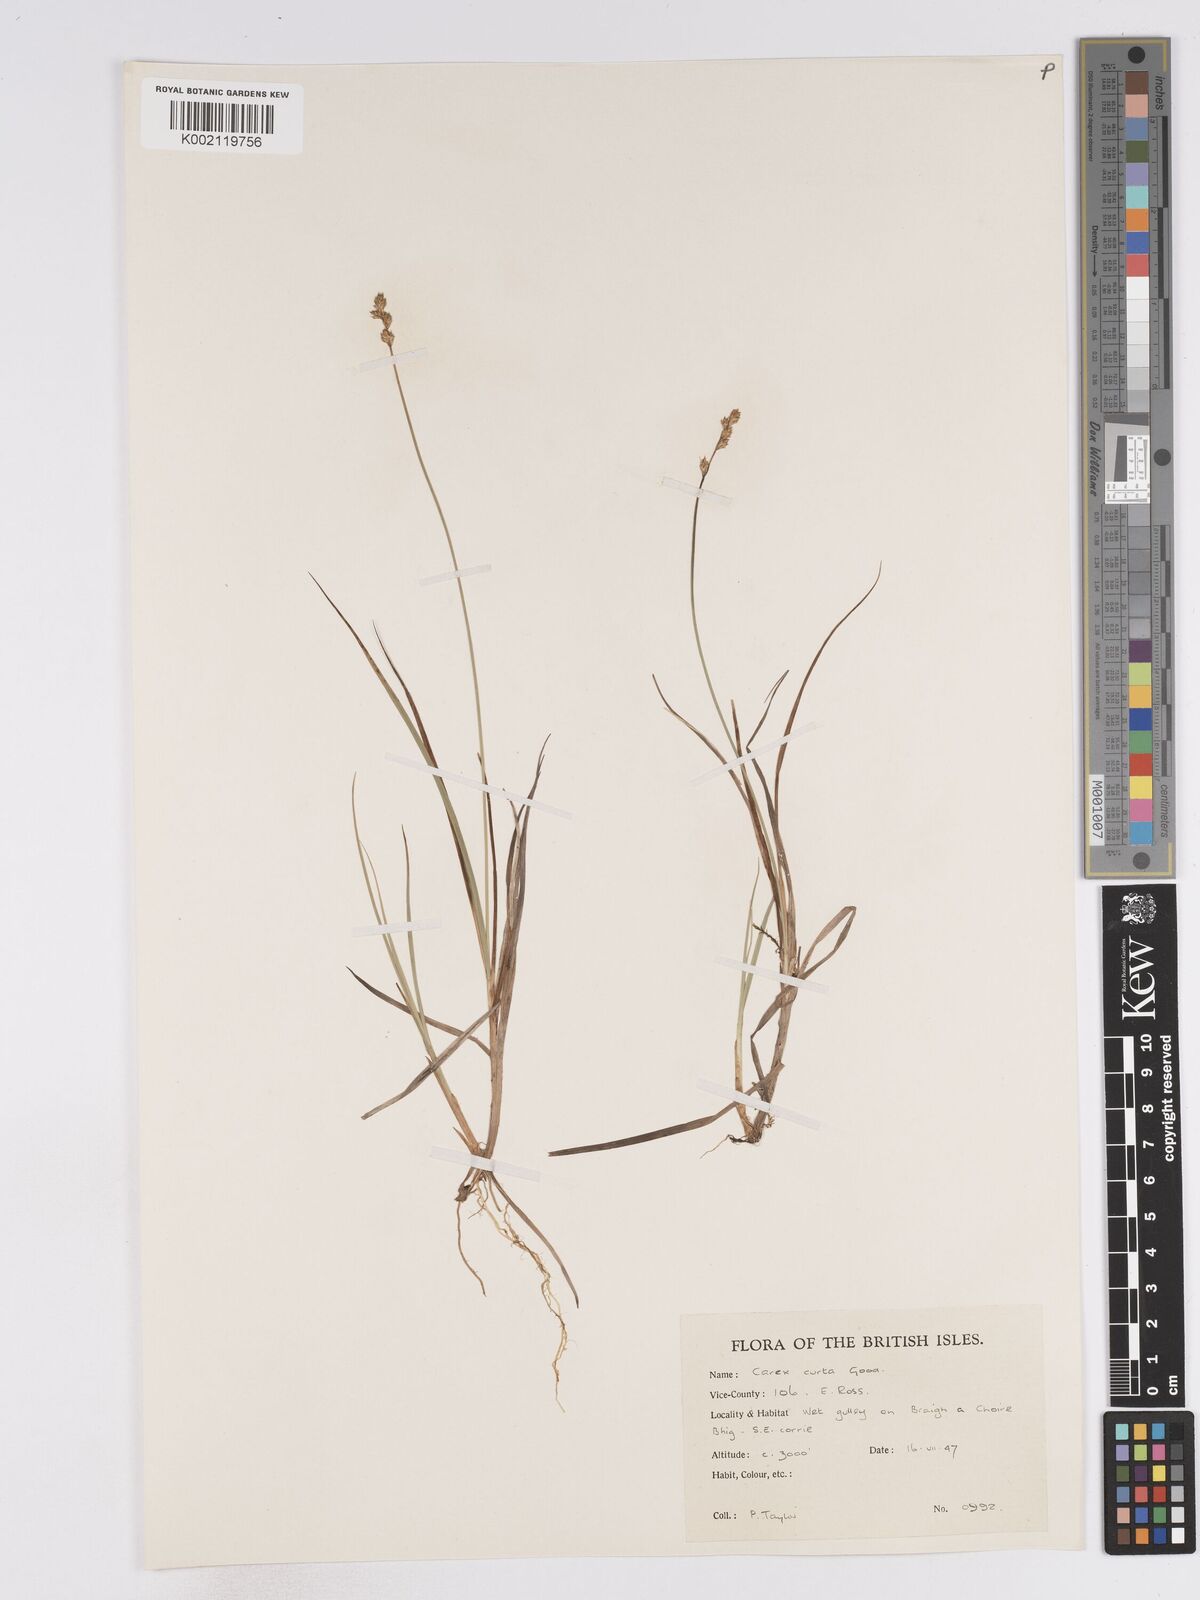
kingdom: Plantae
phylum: Tracheophyta
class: Liliopsida
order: Poales
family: Cyperaceae
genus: Carex
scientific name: Carex curta
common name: White sedge
